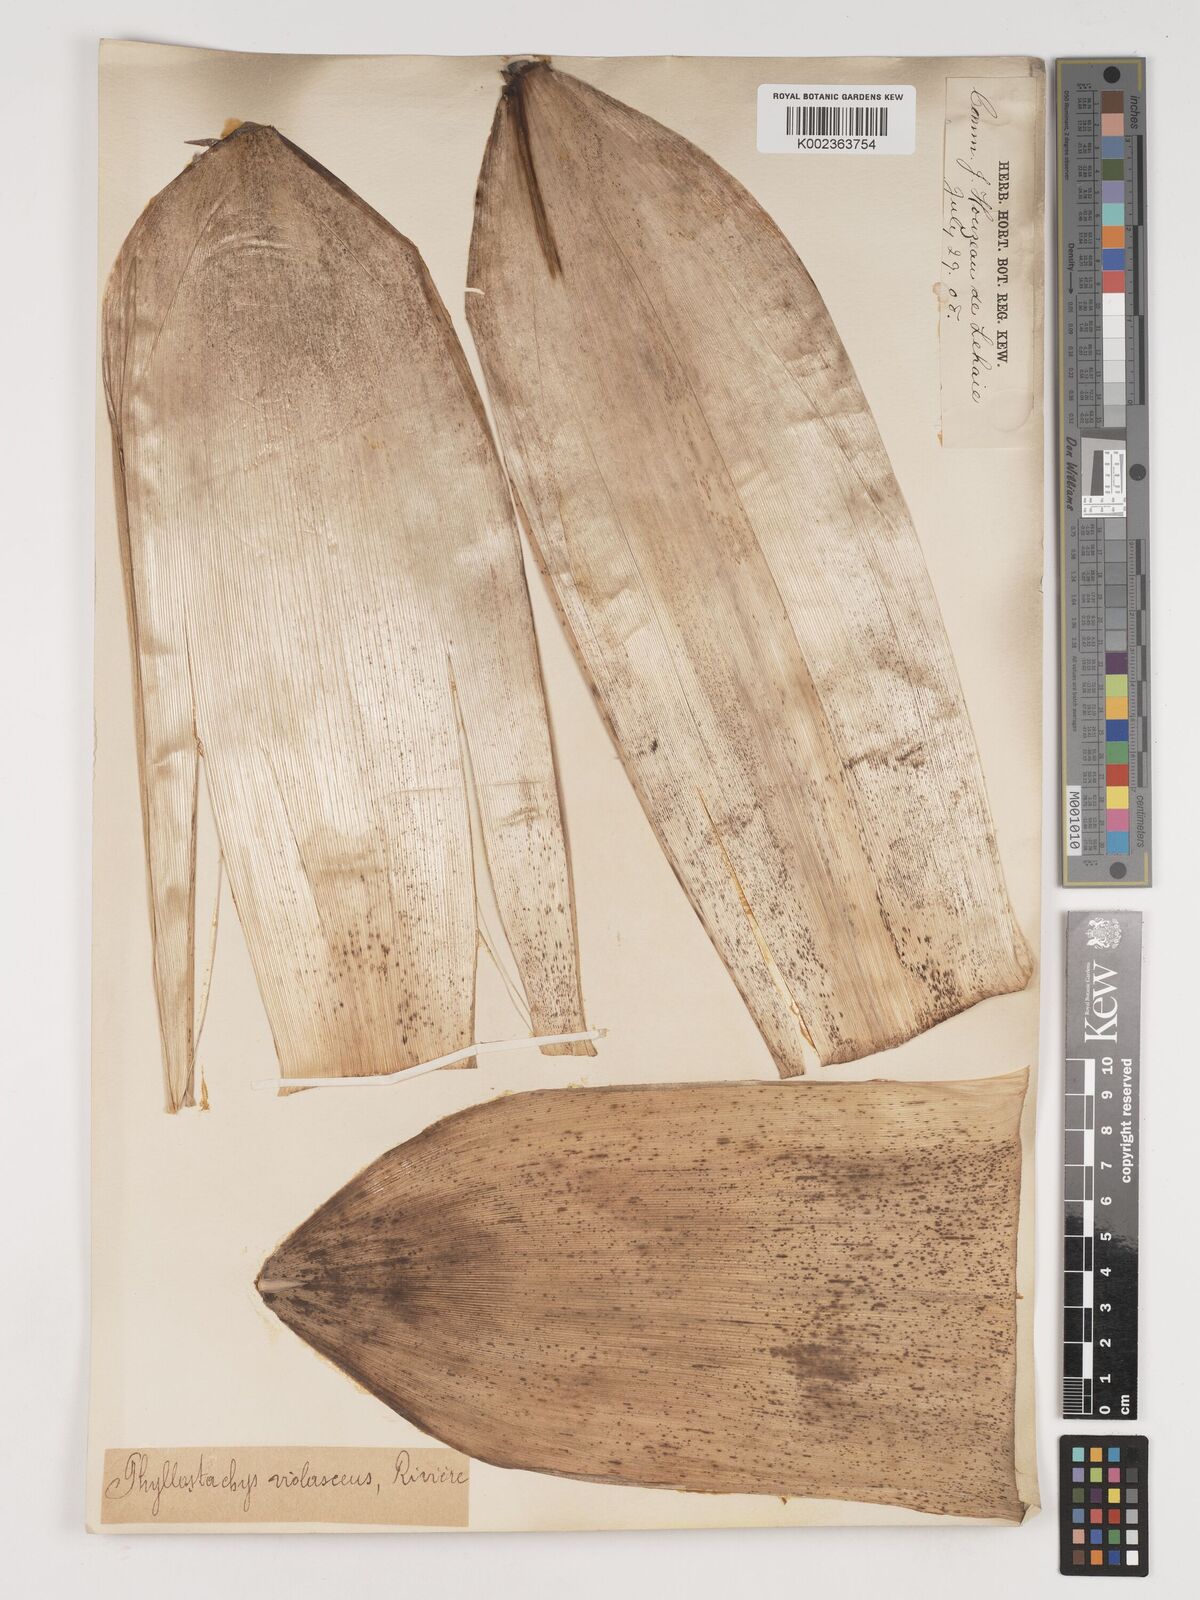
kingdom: Plantae
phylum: Tracheophyta
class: Liliopsida
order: Poales
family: Poaceae
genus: Phyllostachys
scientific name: Phyllostachys reticulata
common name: Bamboo
